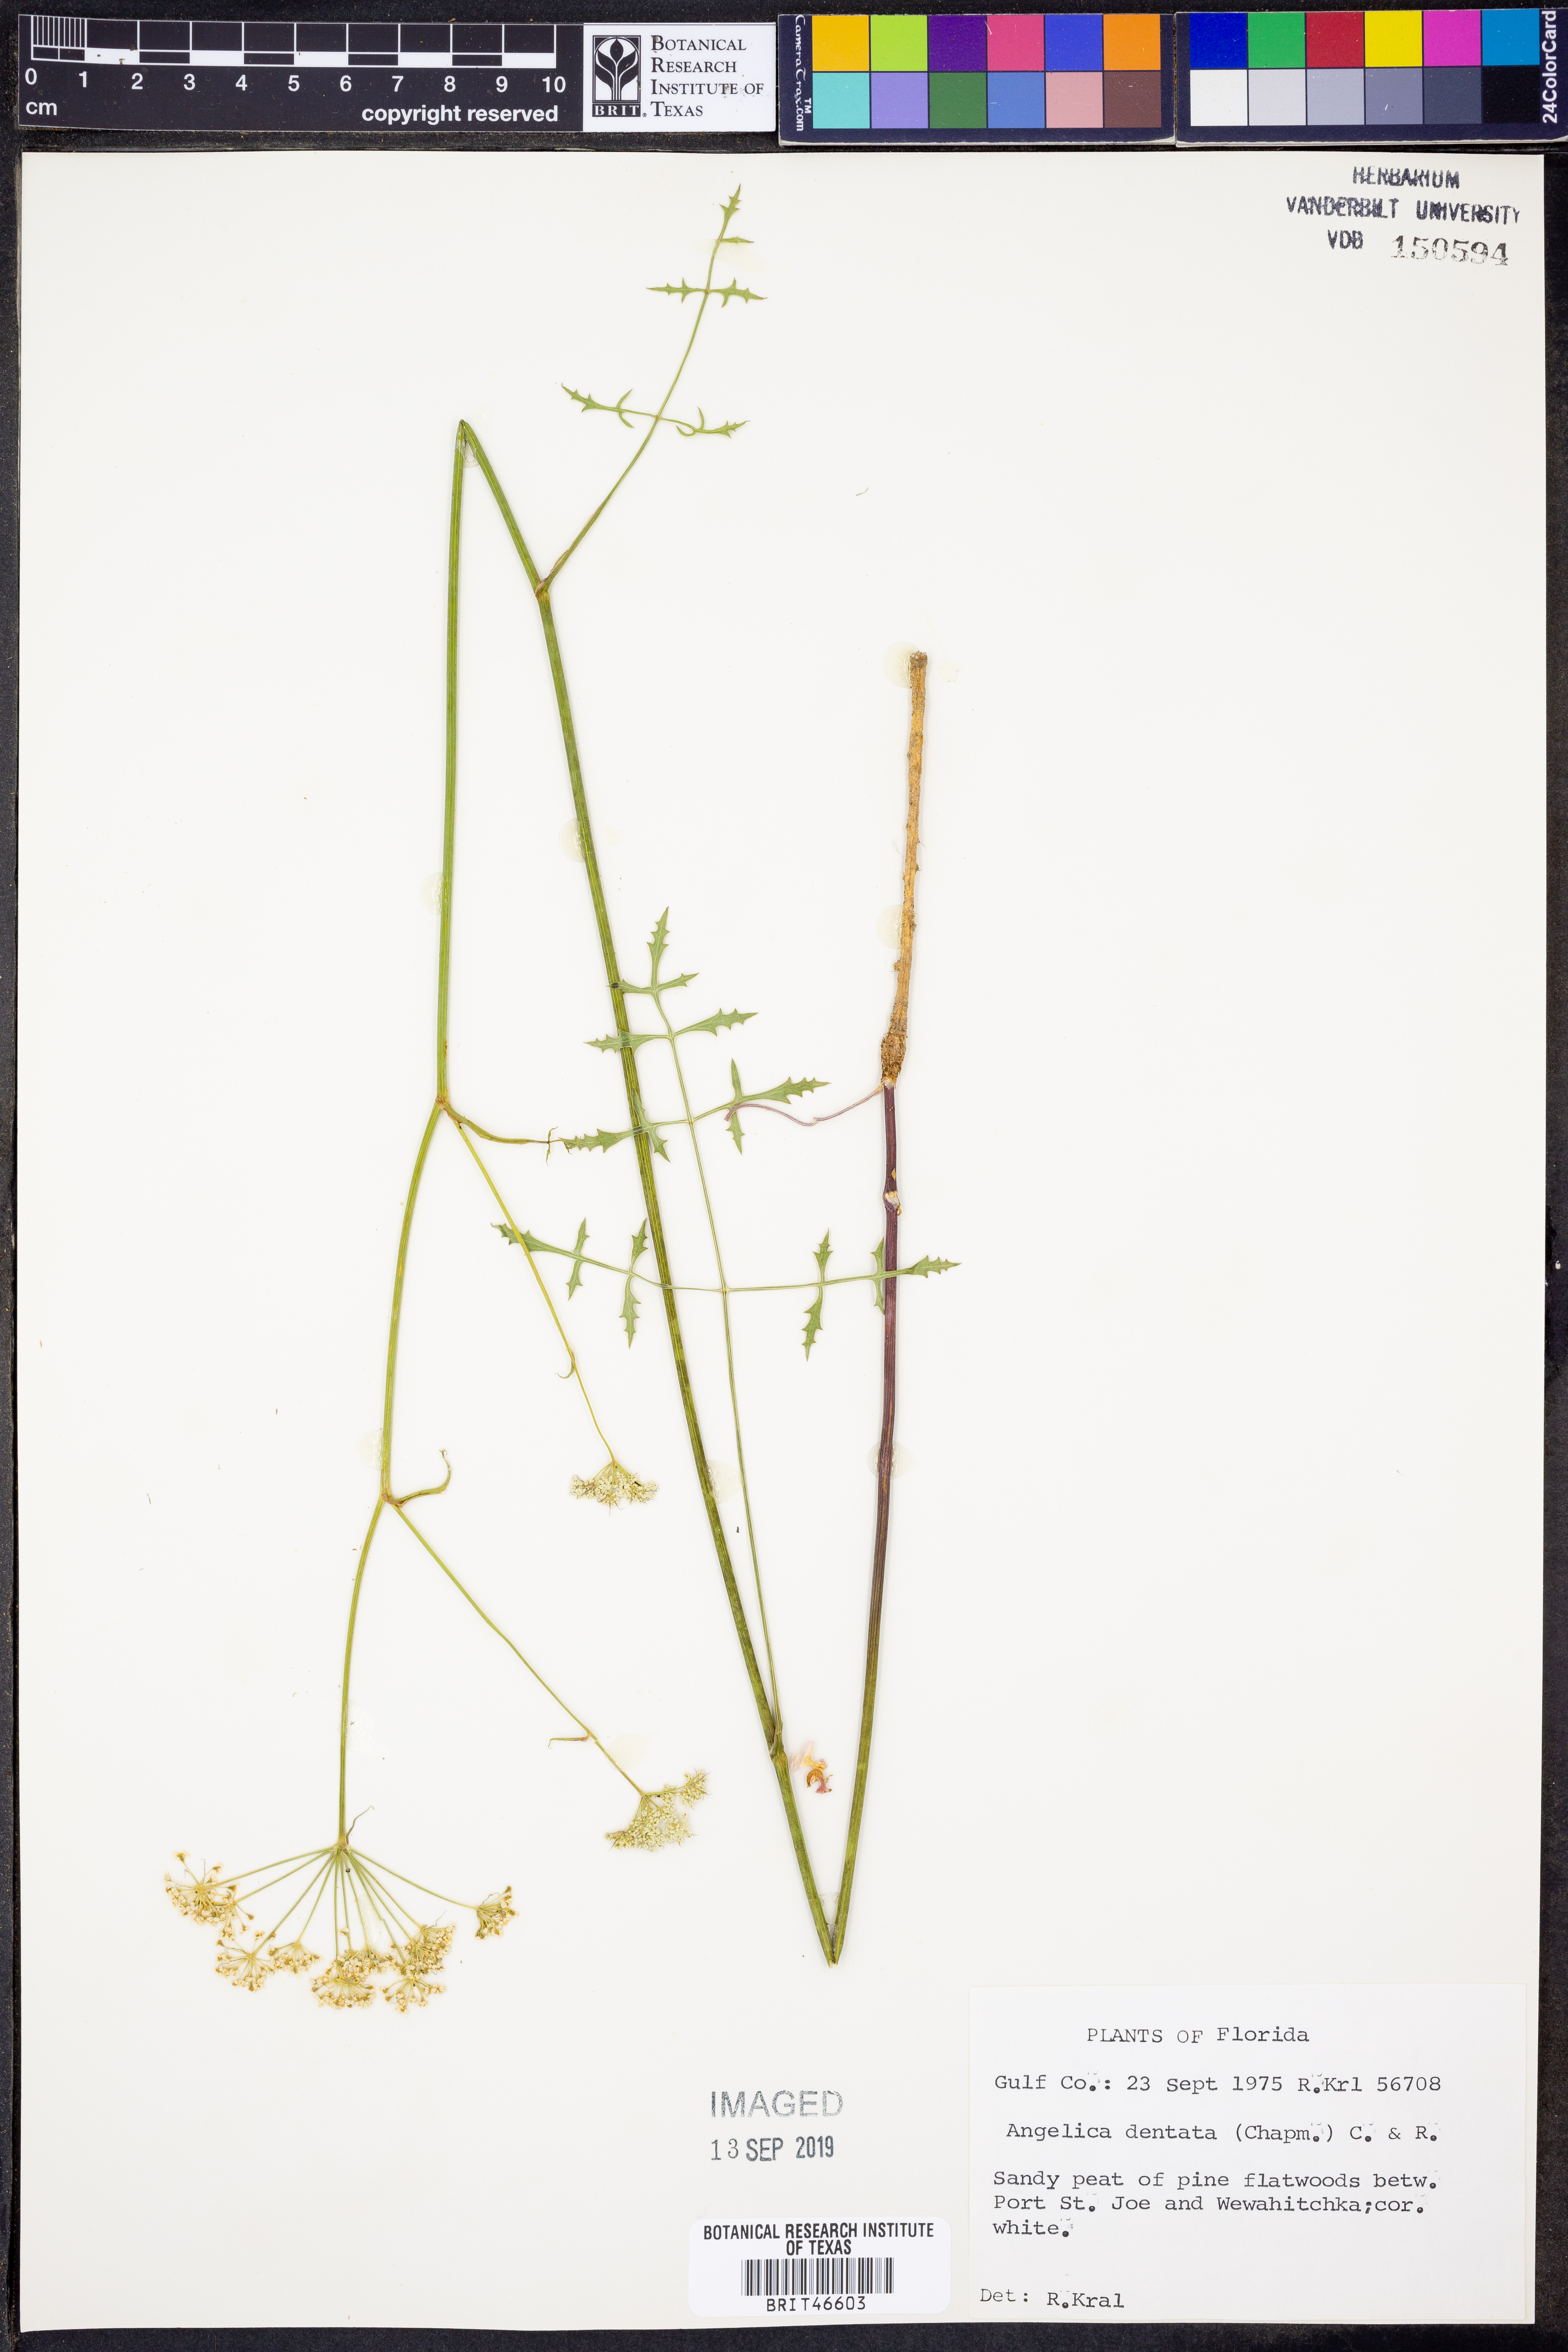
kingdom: Plantae
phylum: Tracheophyta
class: Magnoliopsida
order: Apiales
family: Apiaceae
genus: Angelica
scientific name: Angelica venenosa
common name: Hairy angelica
